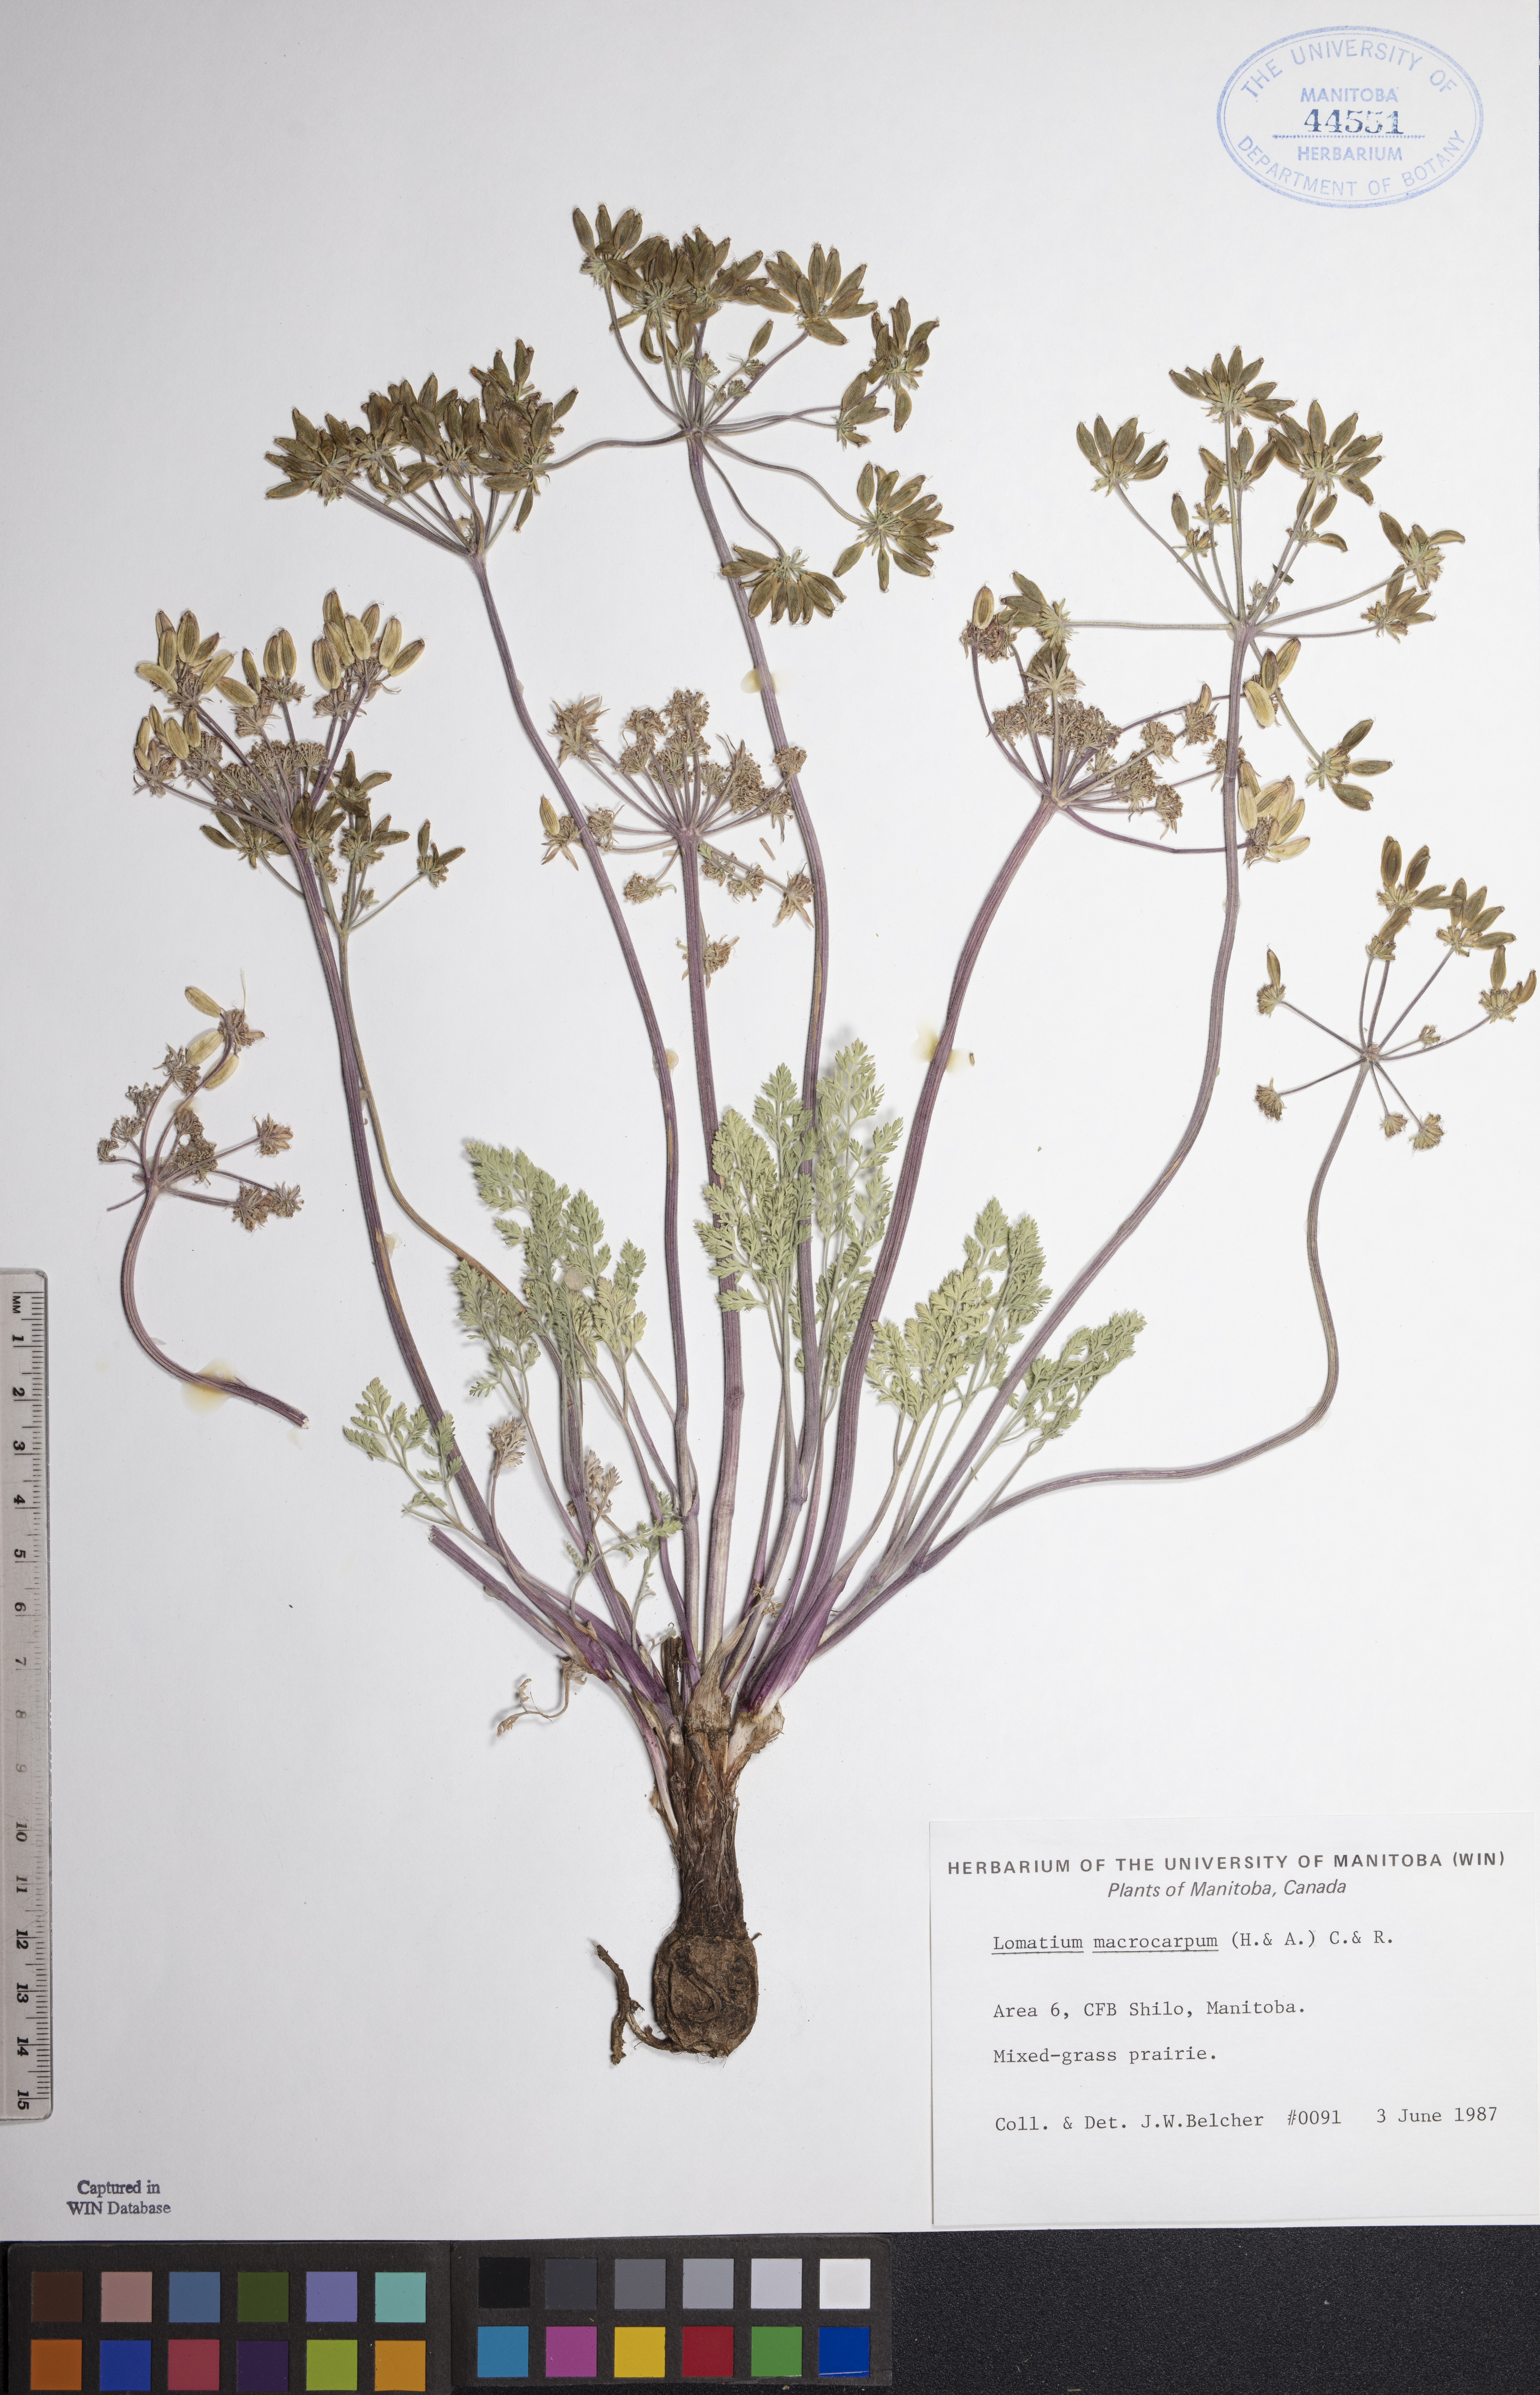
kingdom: Plantae
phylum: Tracheophyta
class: Magnoliopsida
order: Apiales
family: Apiaceae
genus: Lomatium
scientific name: Lomatium macrocarpum
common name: Big-seed biscuitroot
